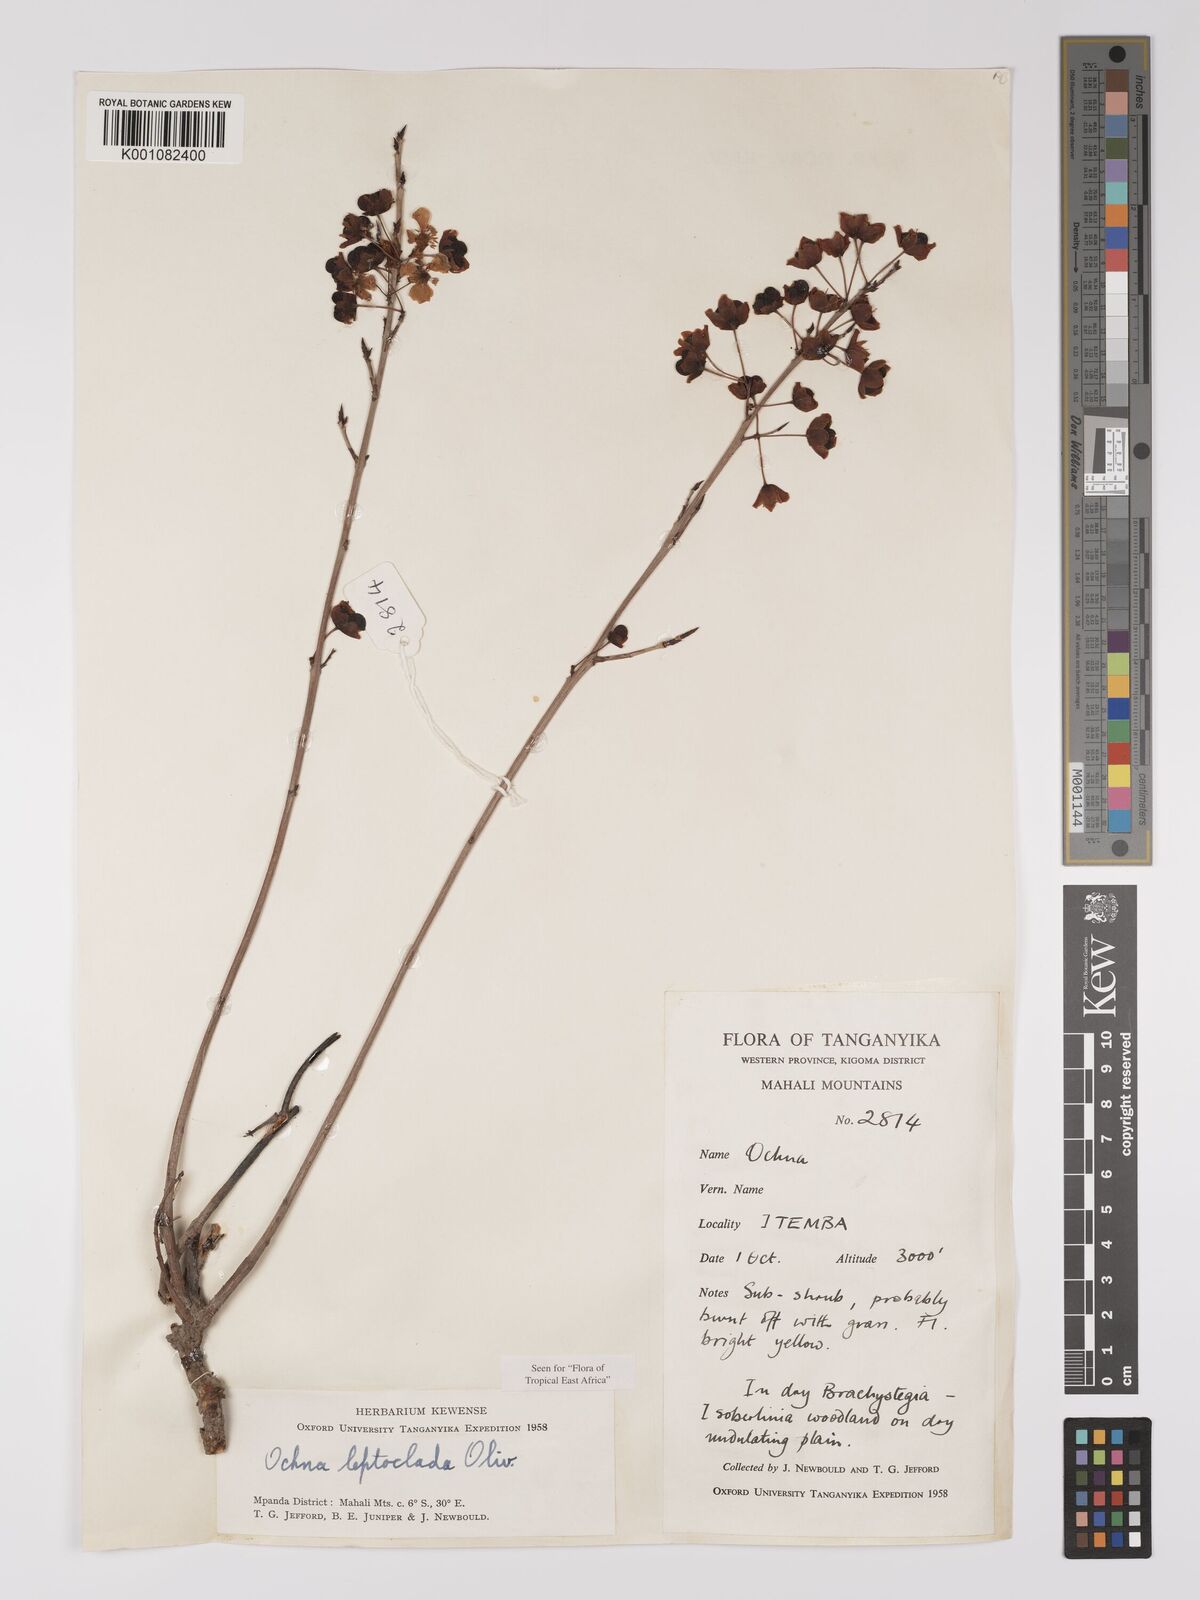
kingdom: Plantae
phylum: Tracheophyta
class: Magnoliopsida
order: Malpighiales
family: Ochnaceae
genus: Ochna
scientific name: Ochna leptoclada
